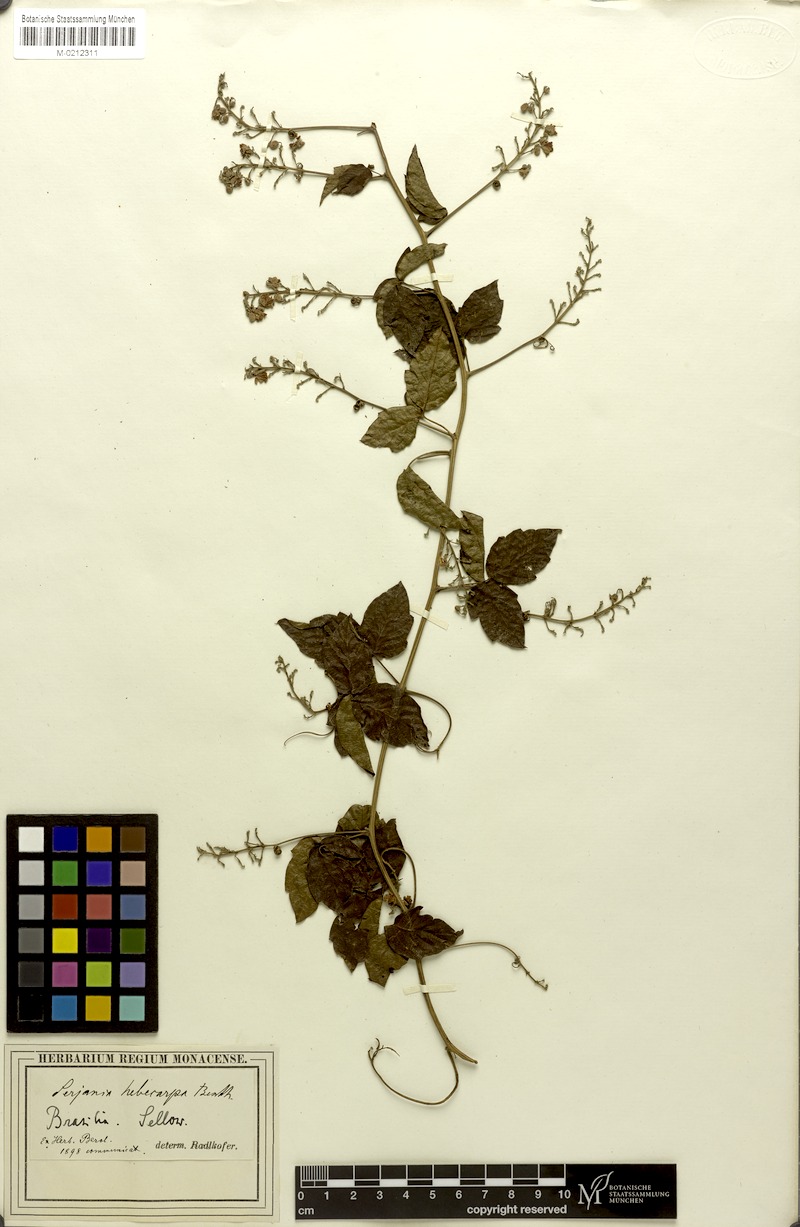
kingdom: Plantae
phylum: Tracheophyta
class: Magnoliopsida
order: Sapindales
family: Sapindaceae
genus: Serjania
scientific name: Serjania hebecarpa
